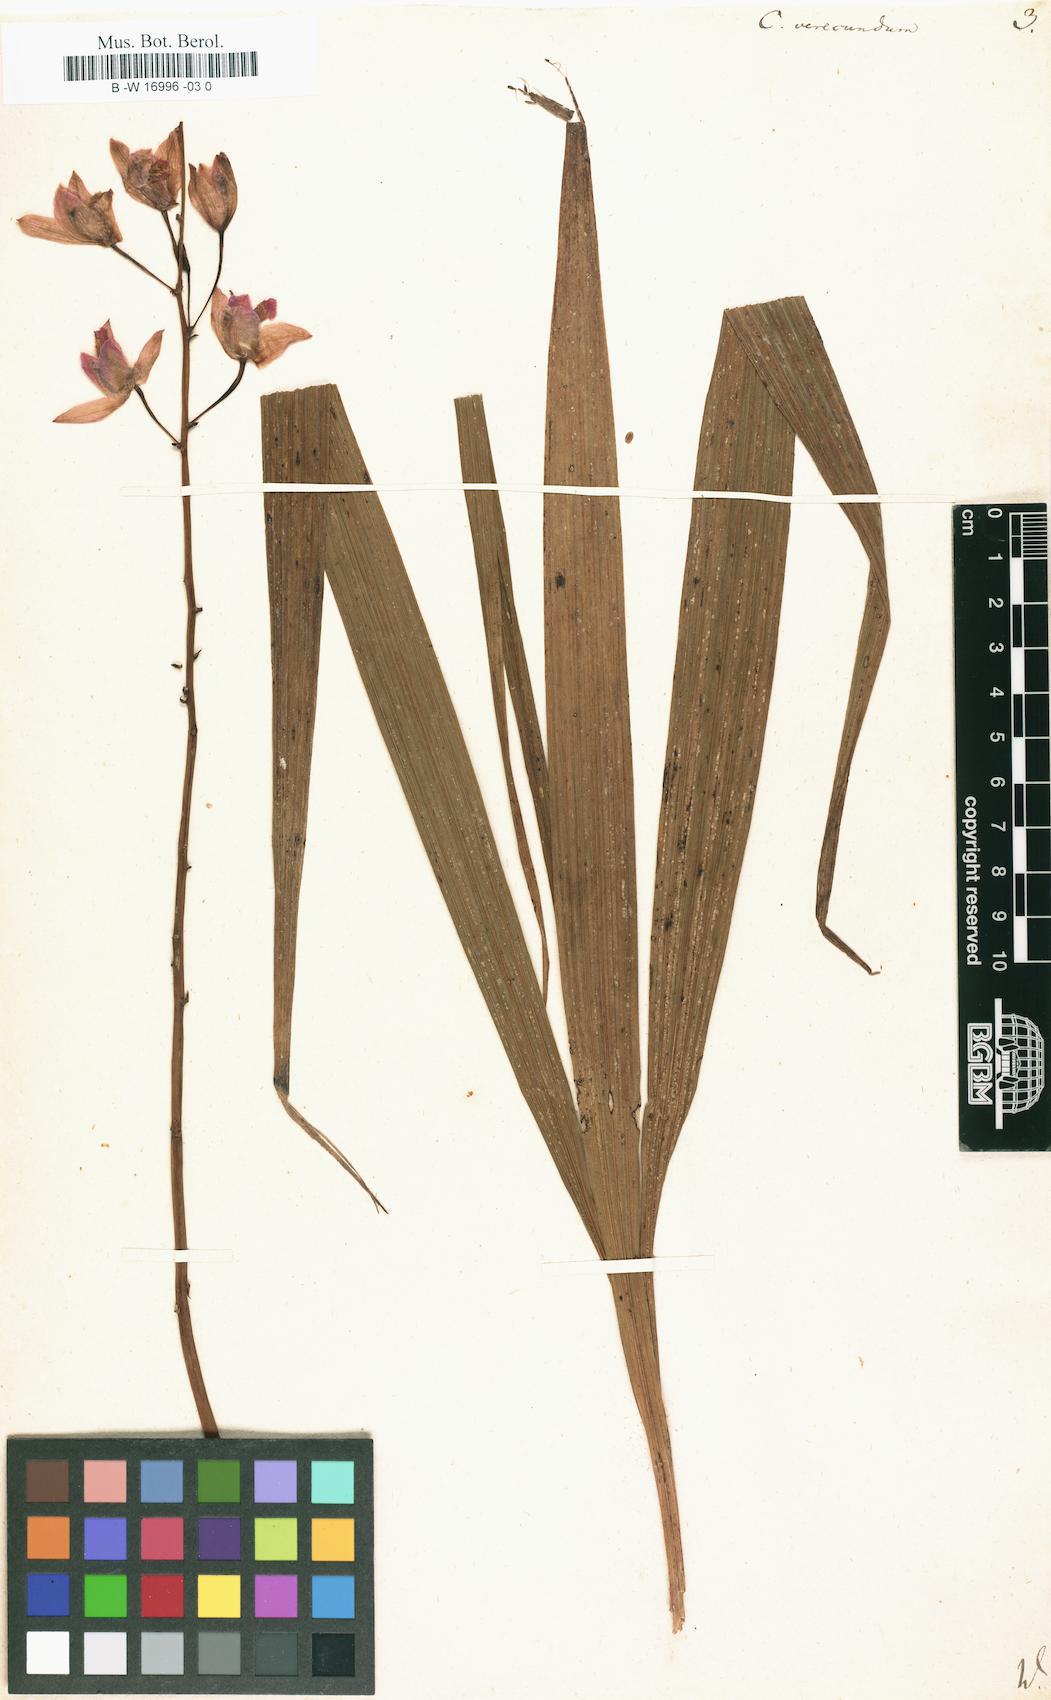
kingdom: Plantae
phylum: Tracheophyta
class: Liliopsida
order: Asparagales
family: Orchidaceae
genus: Bletia
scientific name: Bletia purpurea
